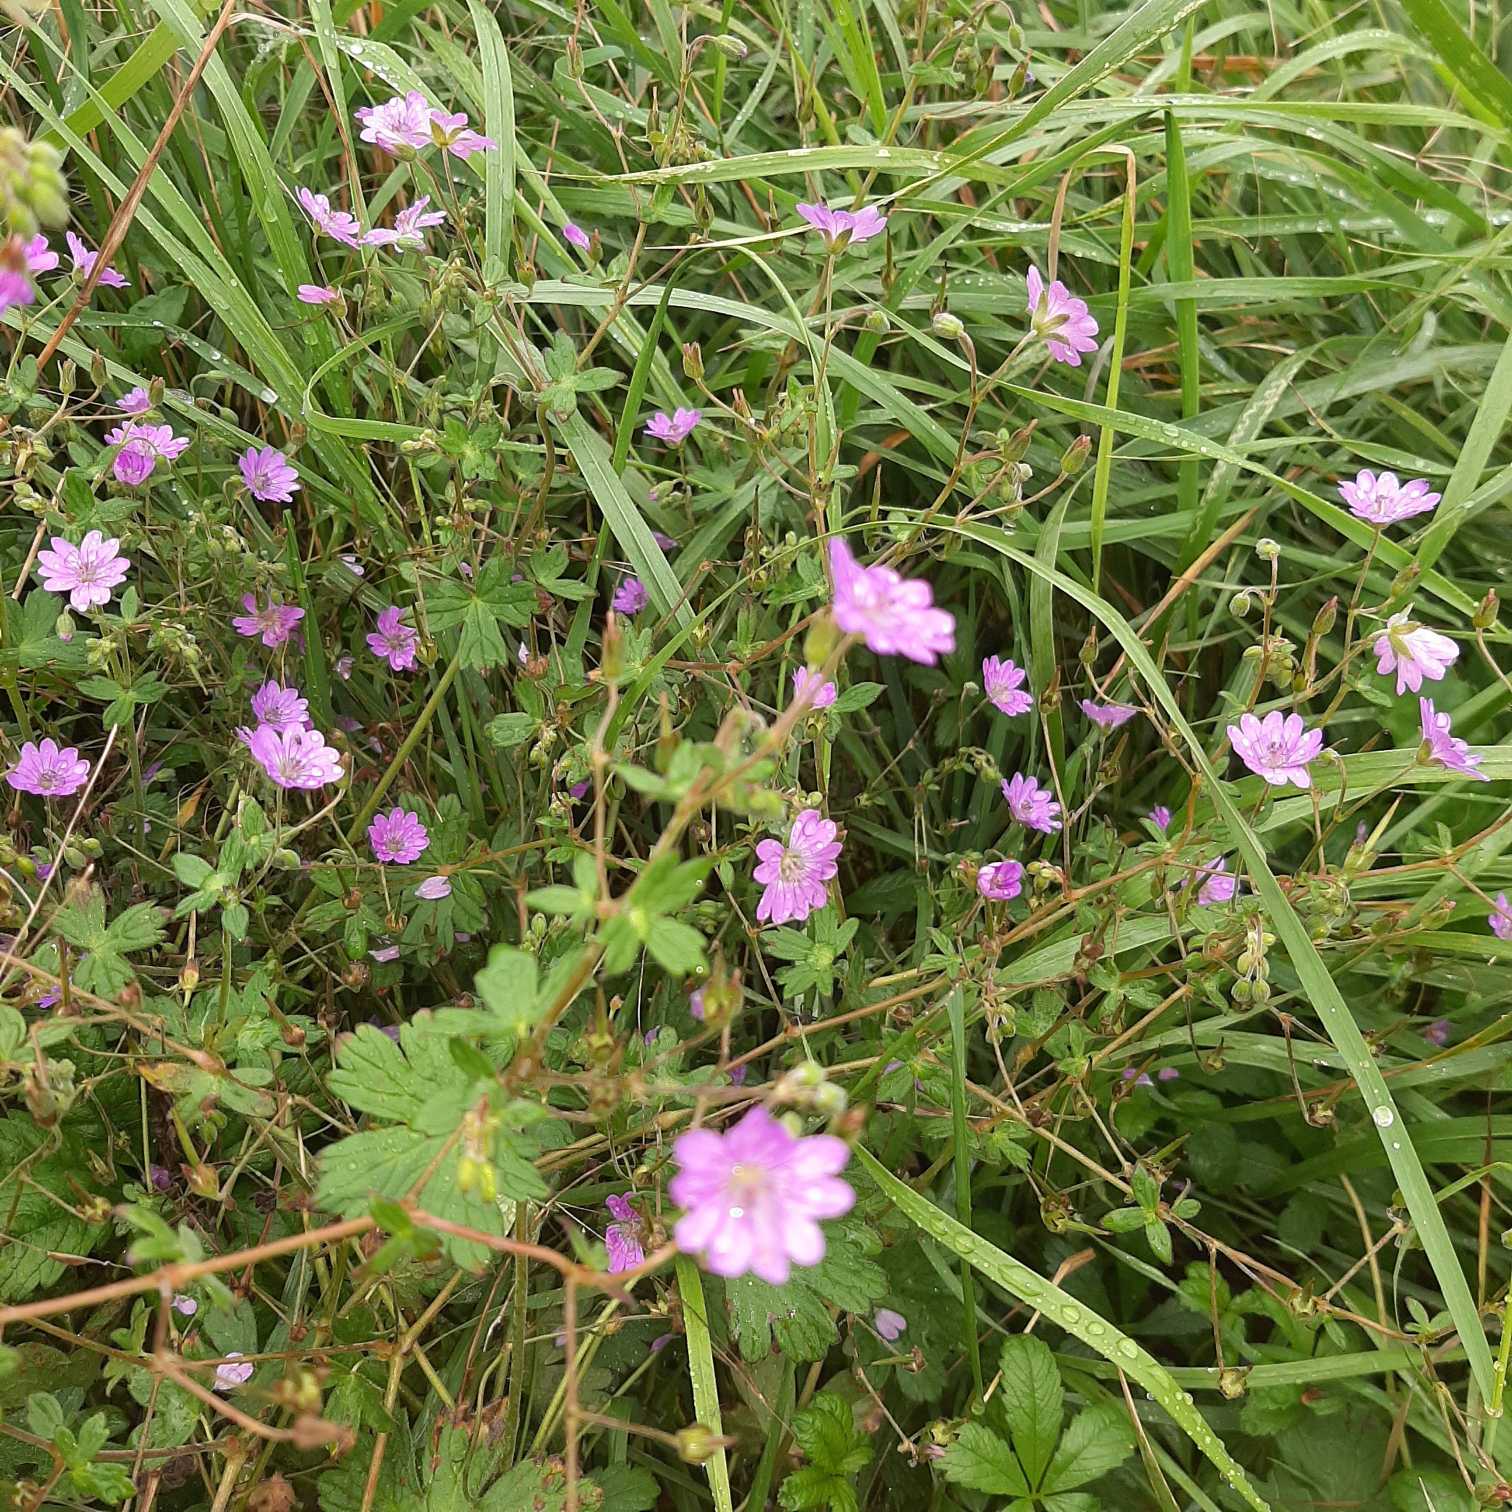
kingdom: Plantae
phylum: Tracheophyta
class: Magnoliopsida
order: Geraniales
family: Geraniaceae
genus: Geranium
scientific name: Geranium pyrenaicum
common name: Pyrenæisk storkenæb
